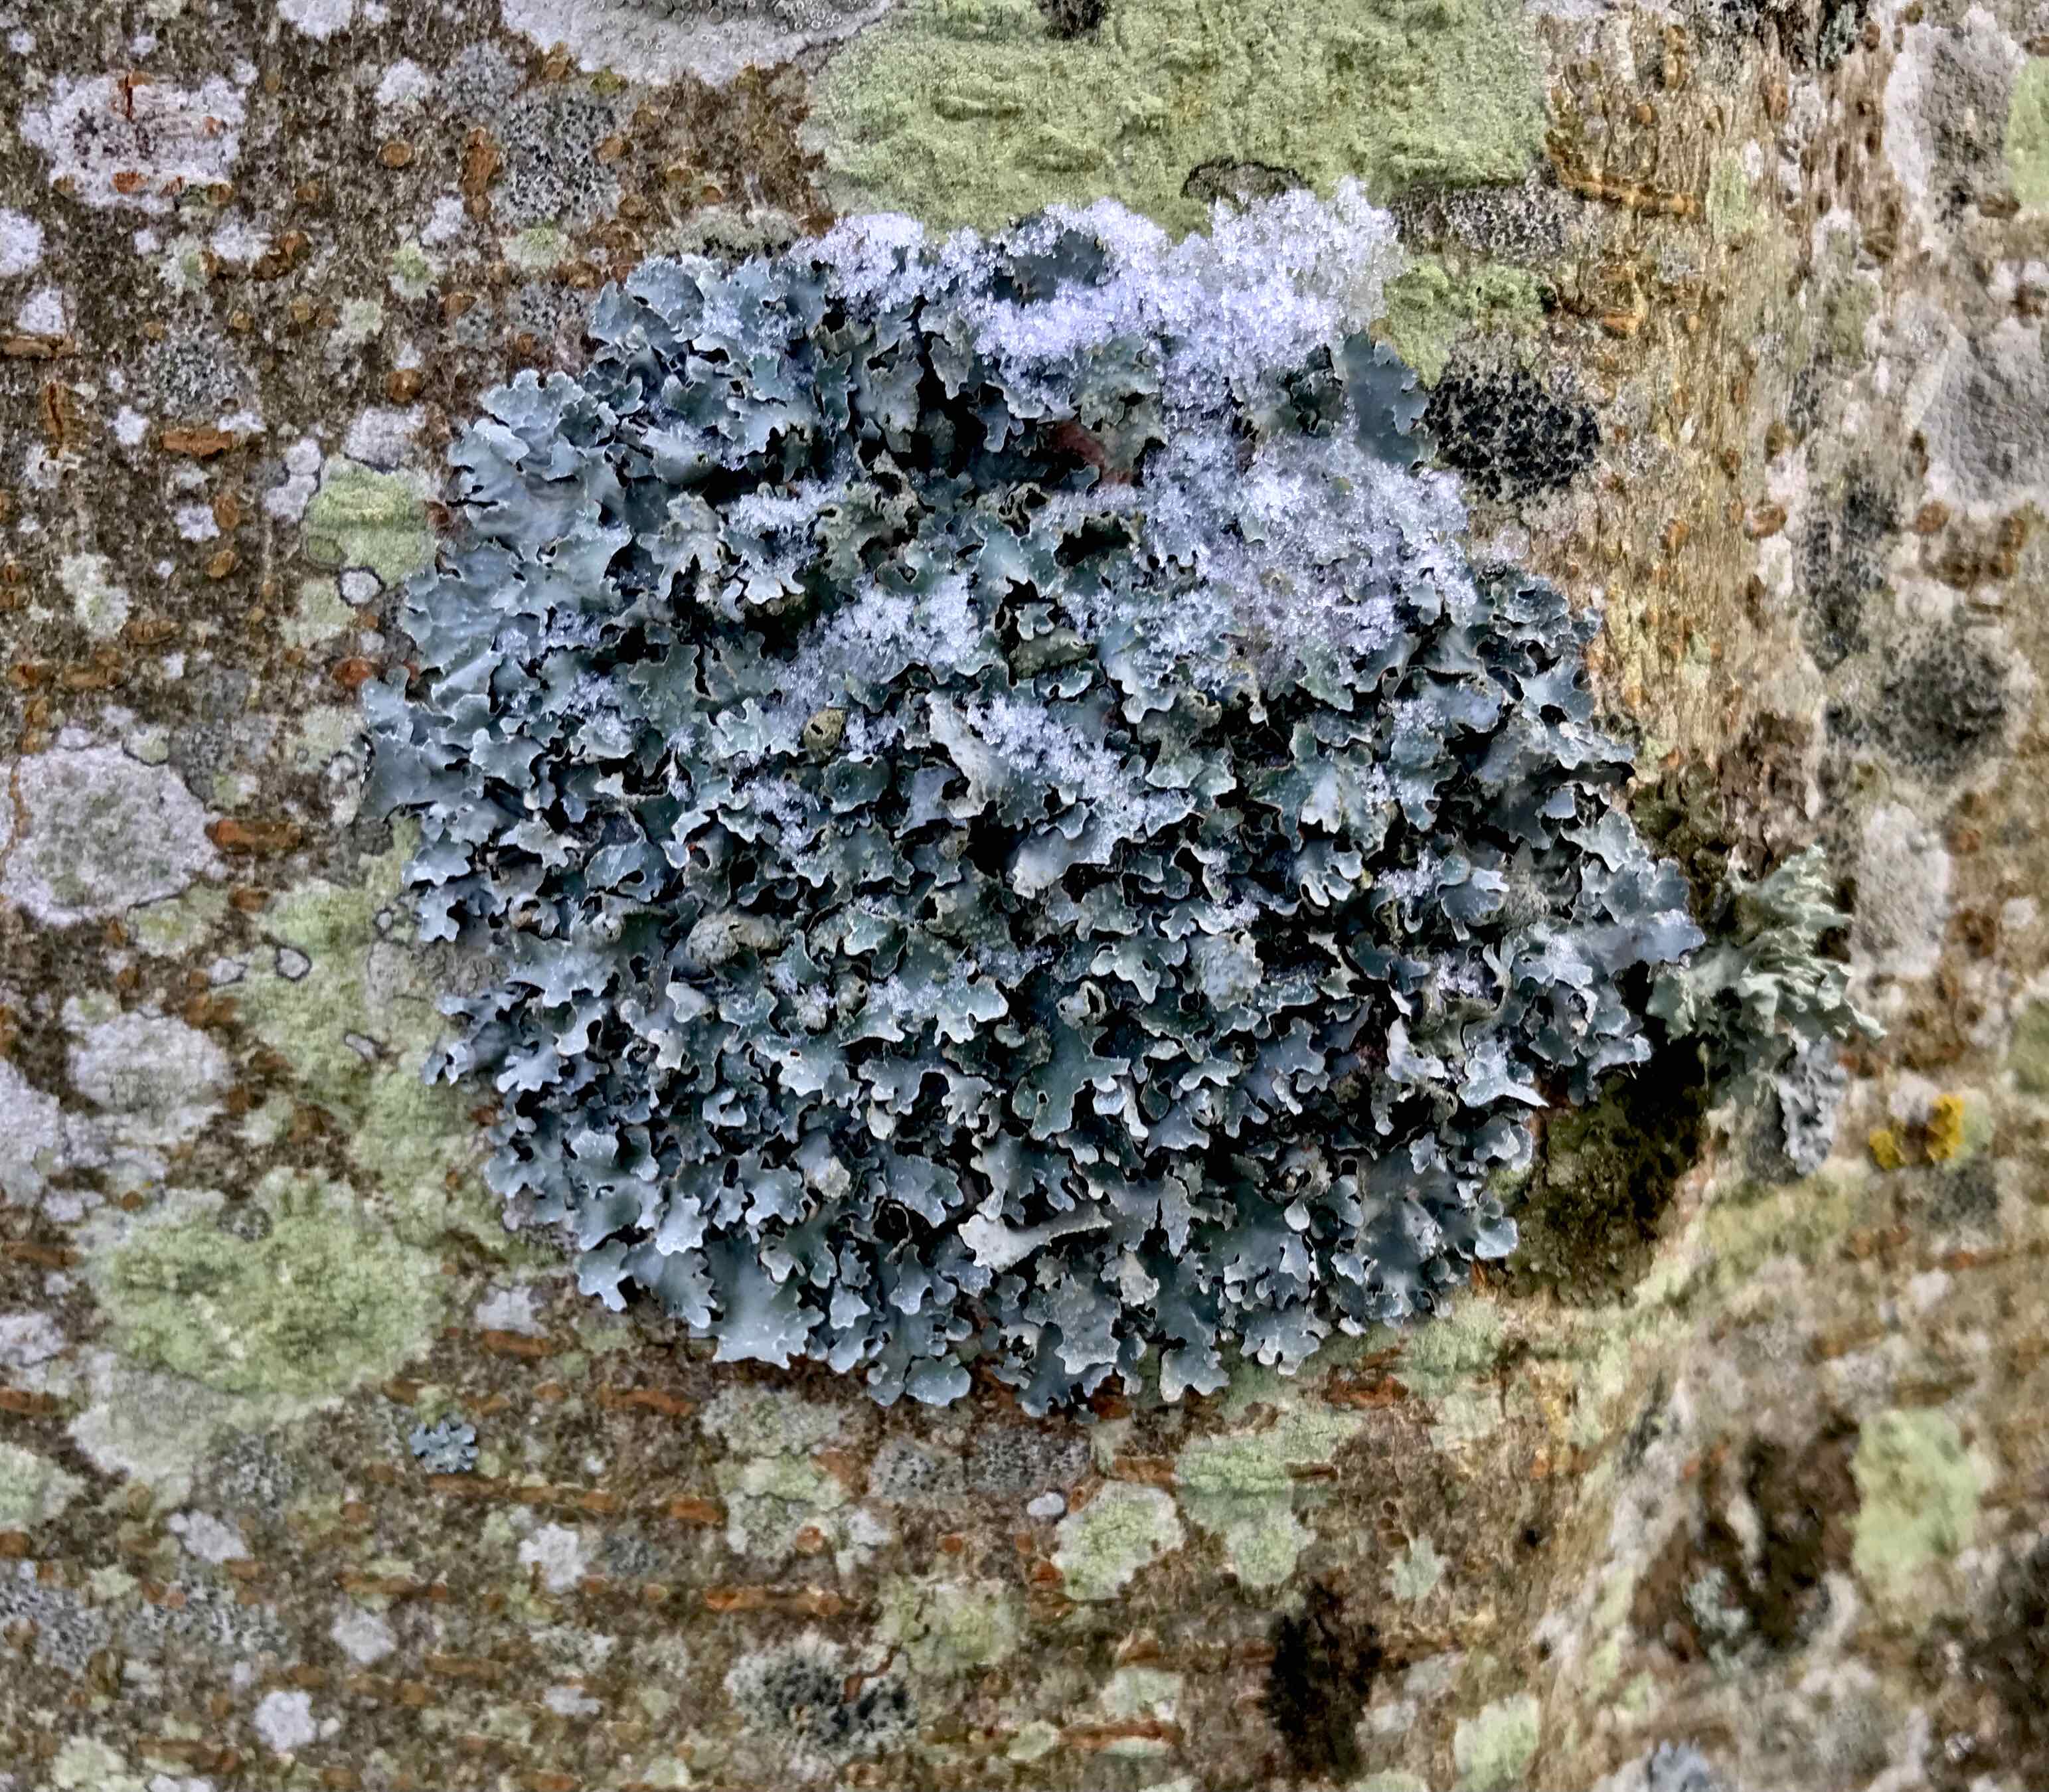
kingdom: Fungi
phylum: Ascomycota
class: Lecanoromycetes
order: Lecanorales
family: Parmeliaceae
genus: Parmelia
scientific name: Parmelia sulcata
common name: rynket skållav
